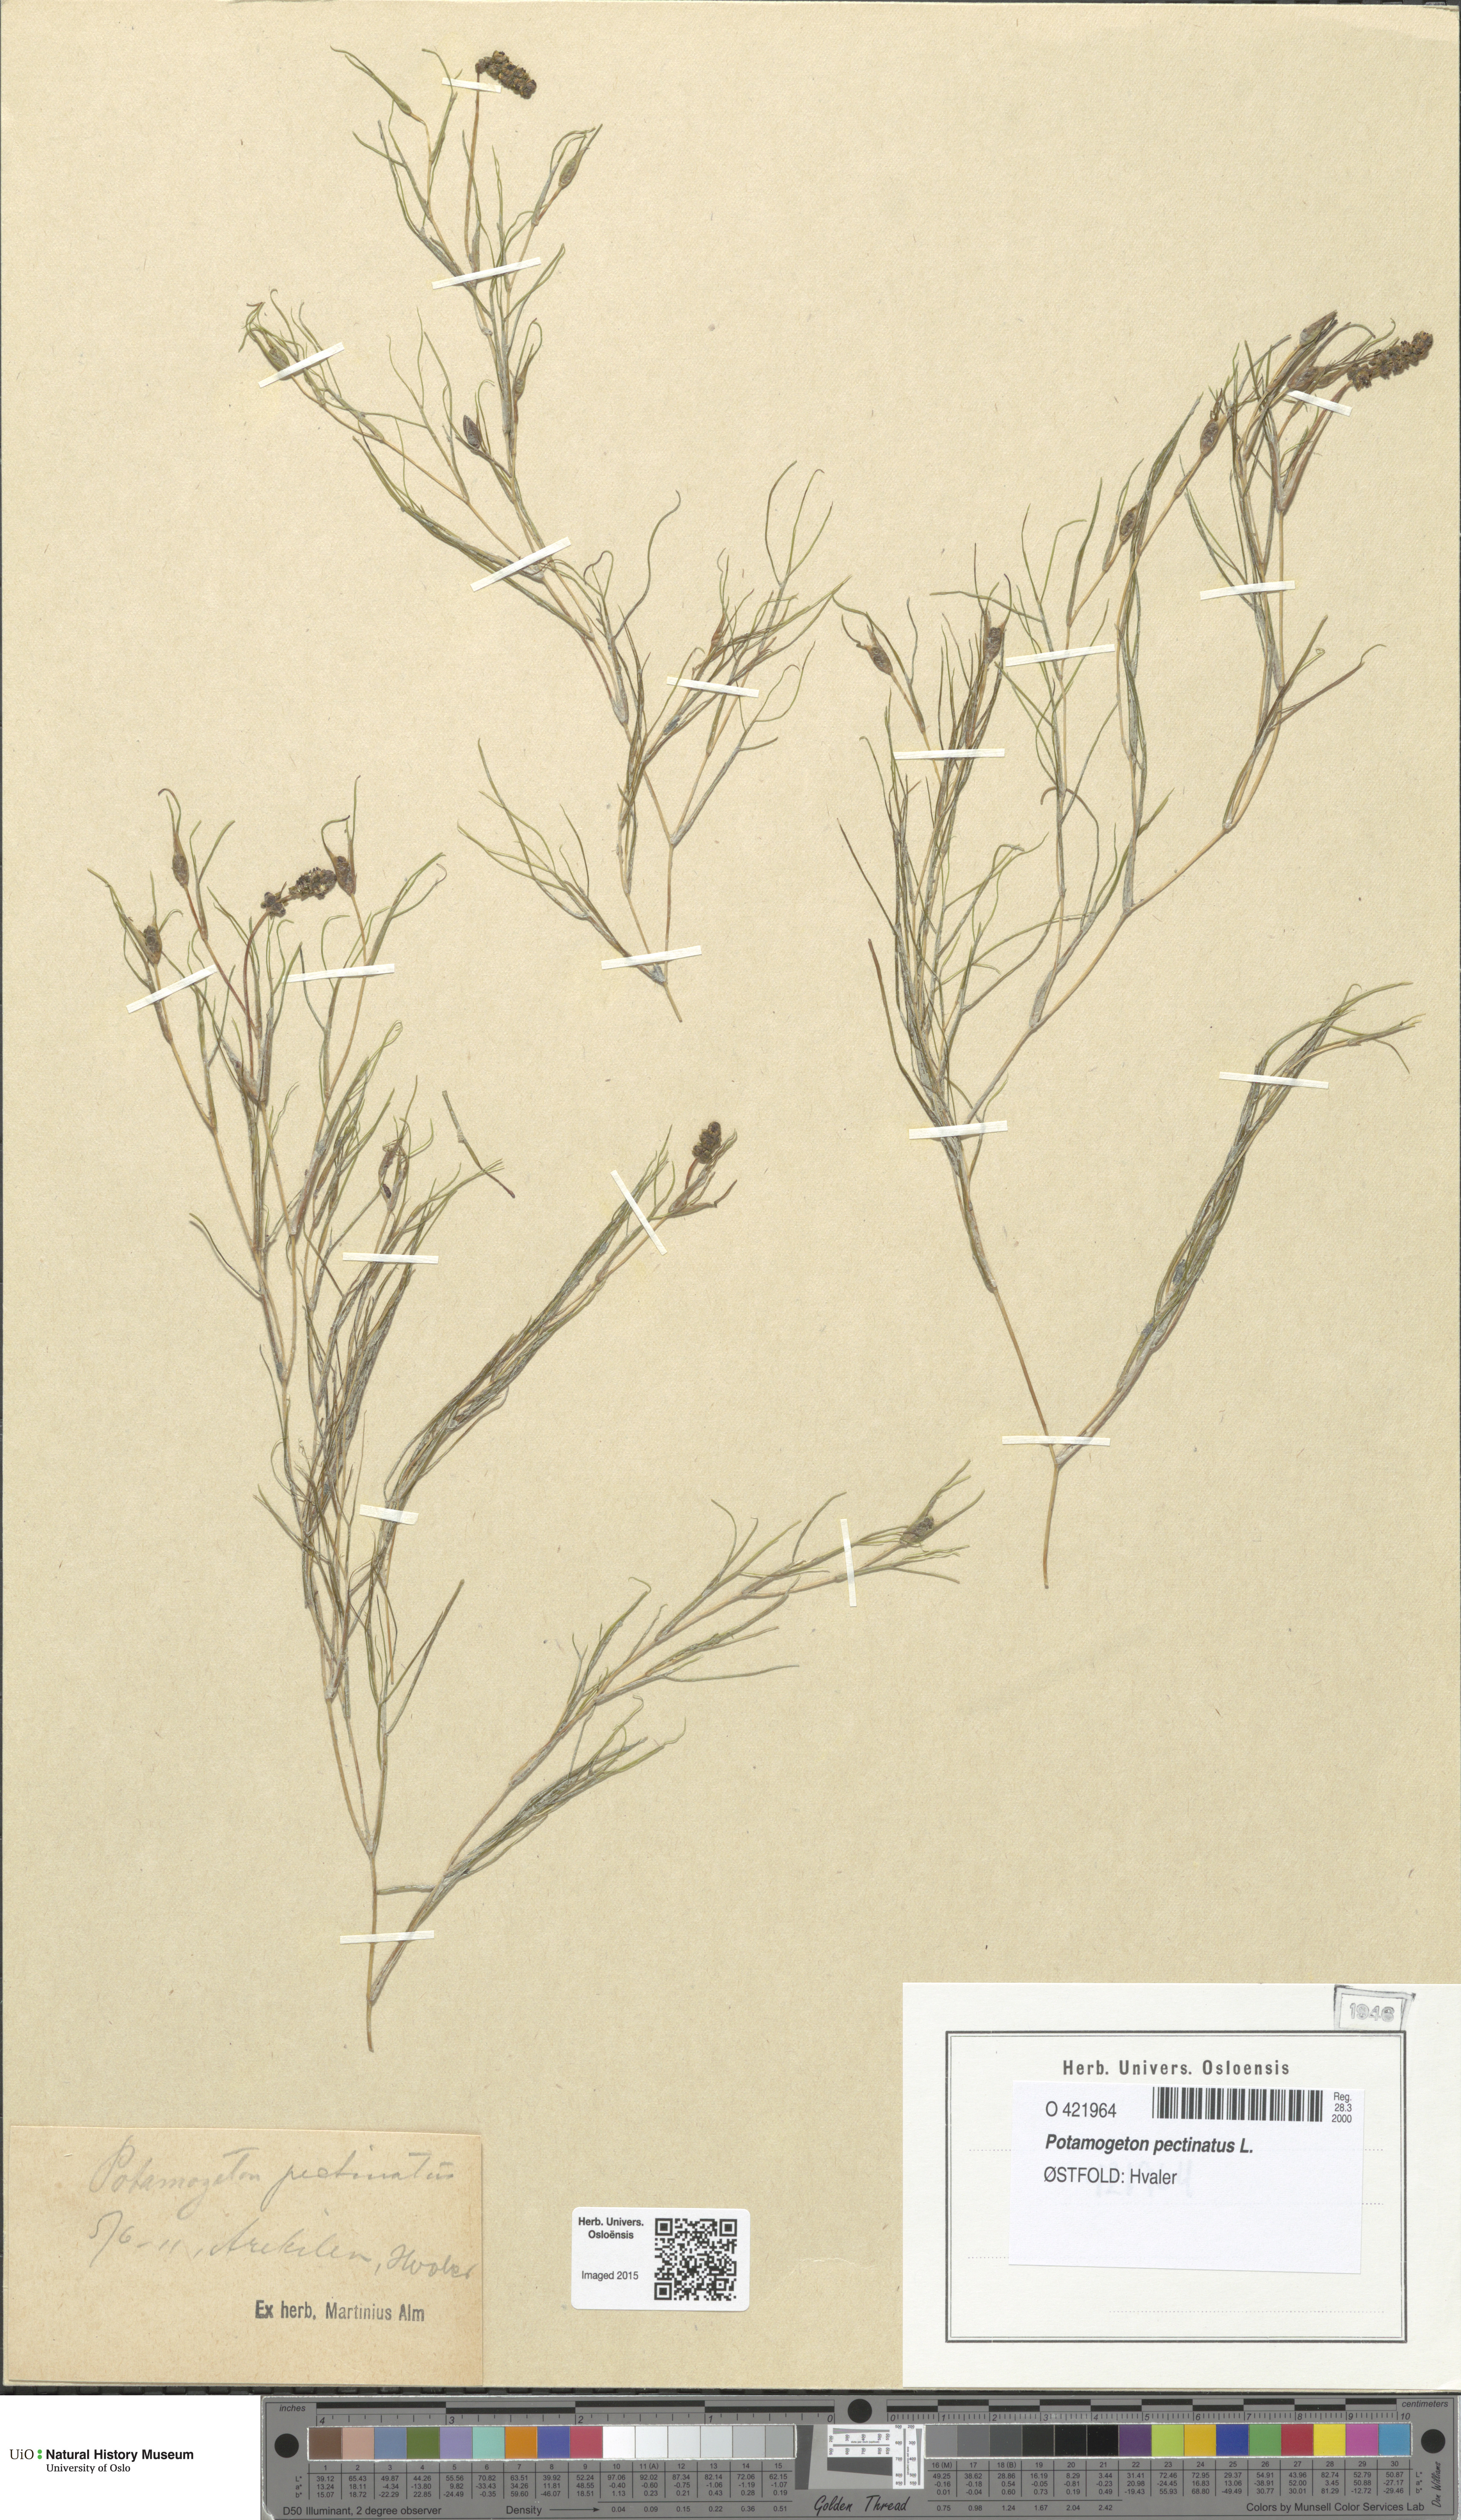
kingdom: Plantae
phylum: Tracheophyta
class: Liliopsida
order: Alismatales
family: Potamogetonaceae
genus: Stuckenia
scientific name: Stuckenia pectinata
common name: Sago pondweed
